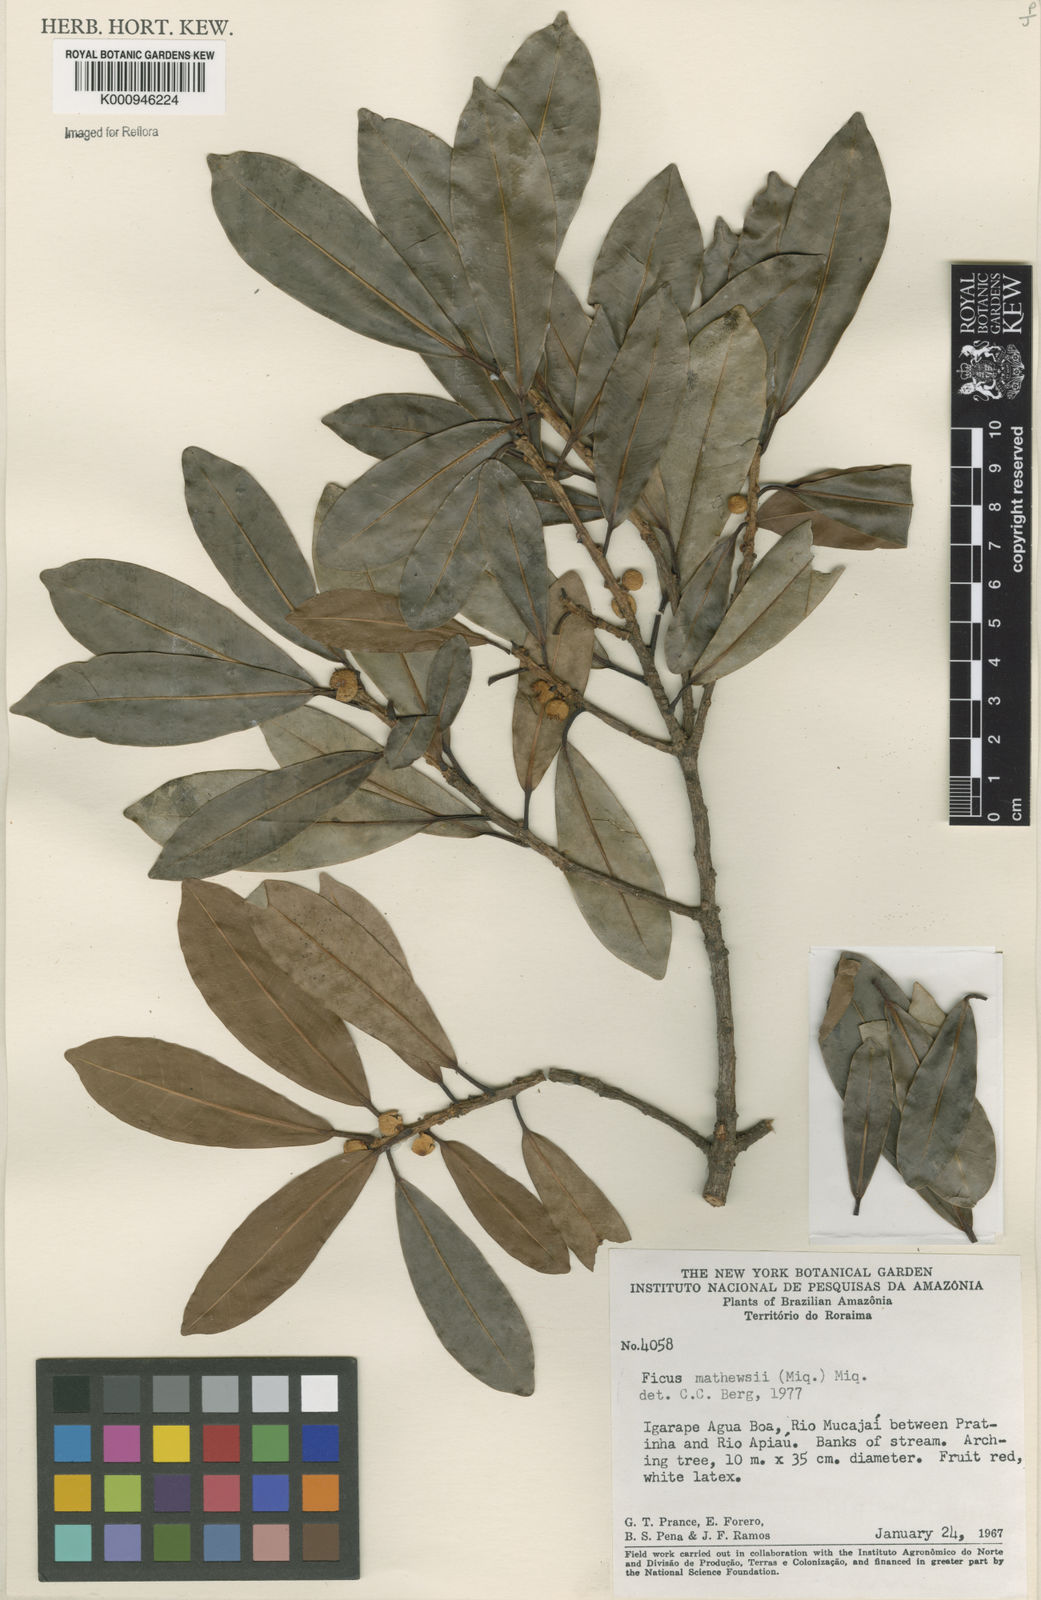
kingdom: Plantae
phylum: Tracheophyta
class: Magnoliopsida
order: Rosales
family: Moraceae
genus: Ficus
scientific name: Ficus mathewsii
